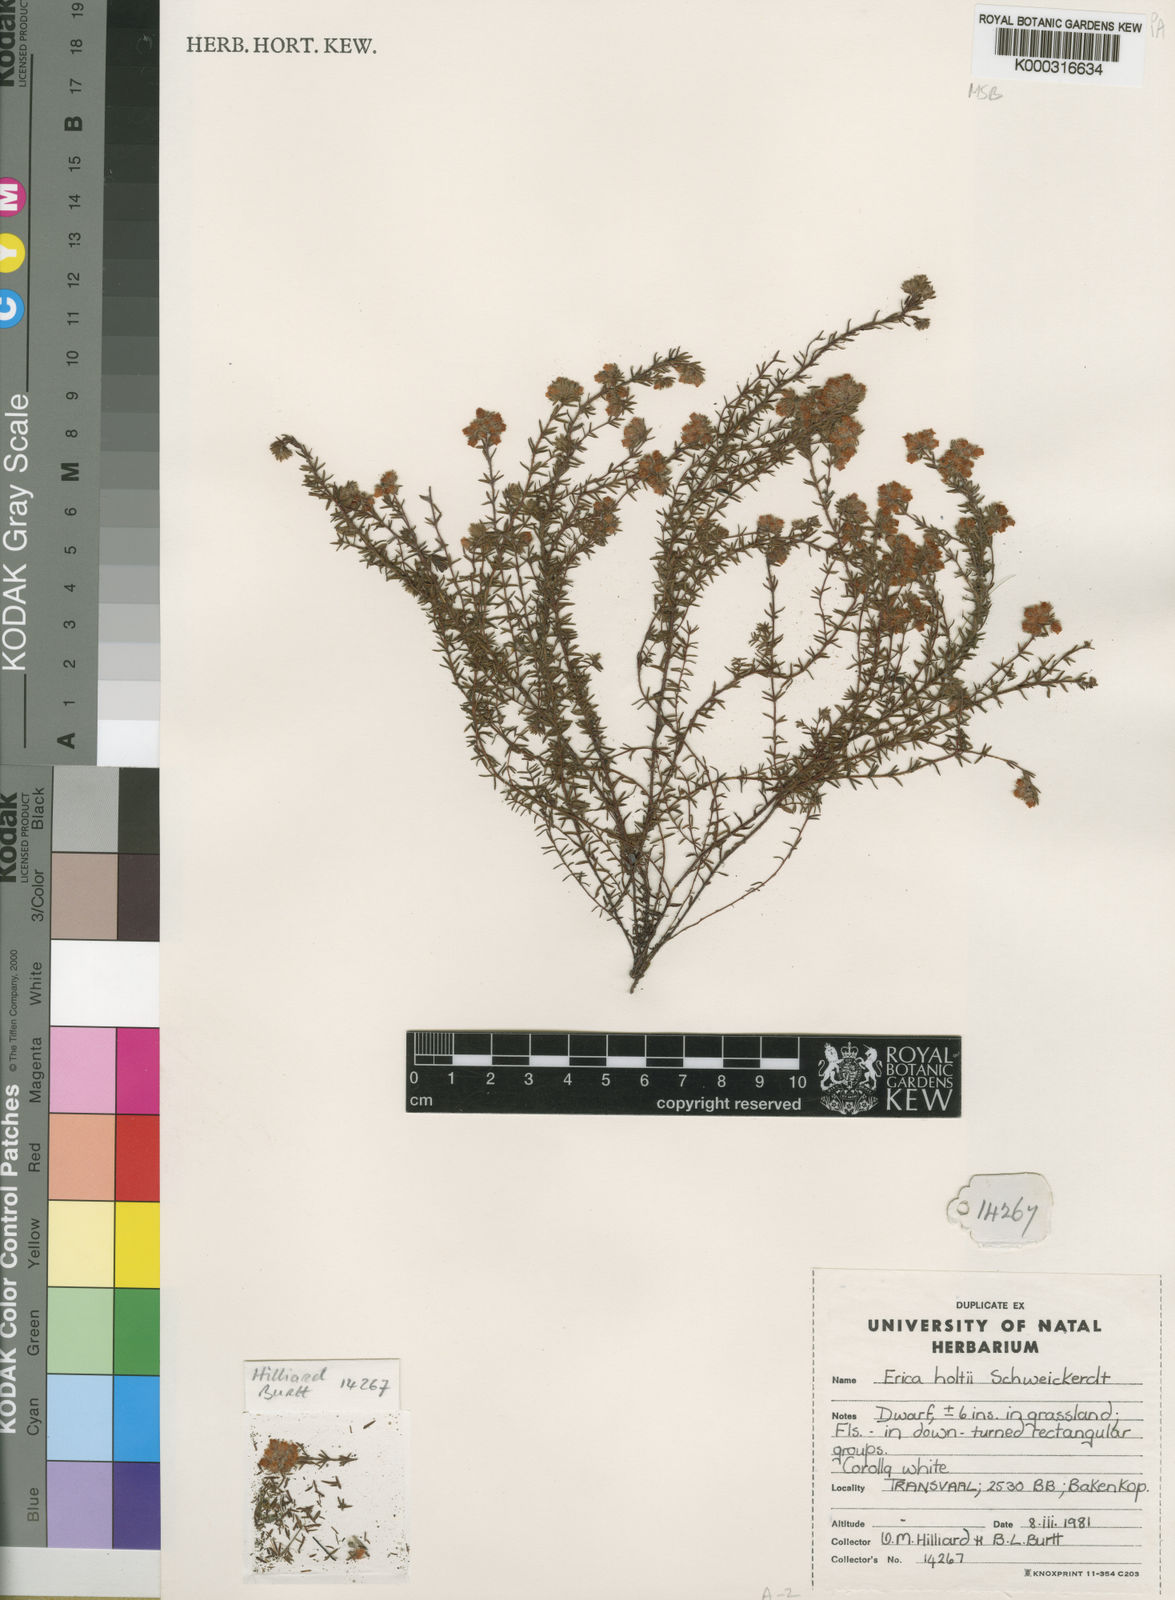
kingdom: Plantae
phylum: Tracheophyta
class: Magnoliopsida
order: Ericales
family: Ericaceae
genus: Erica
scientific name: Erica holtii
